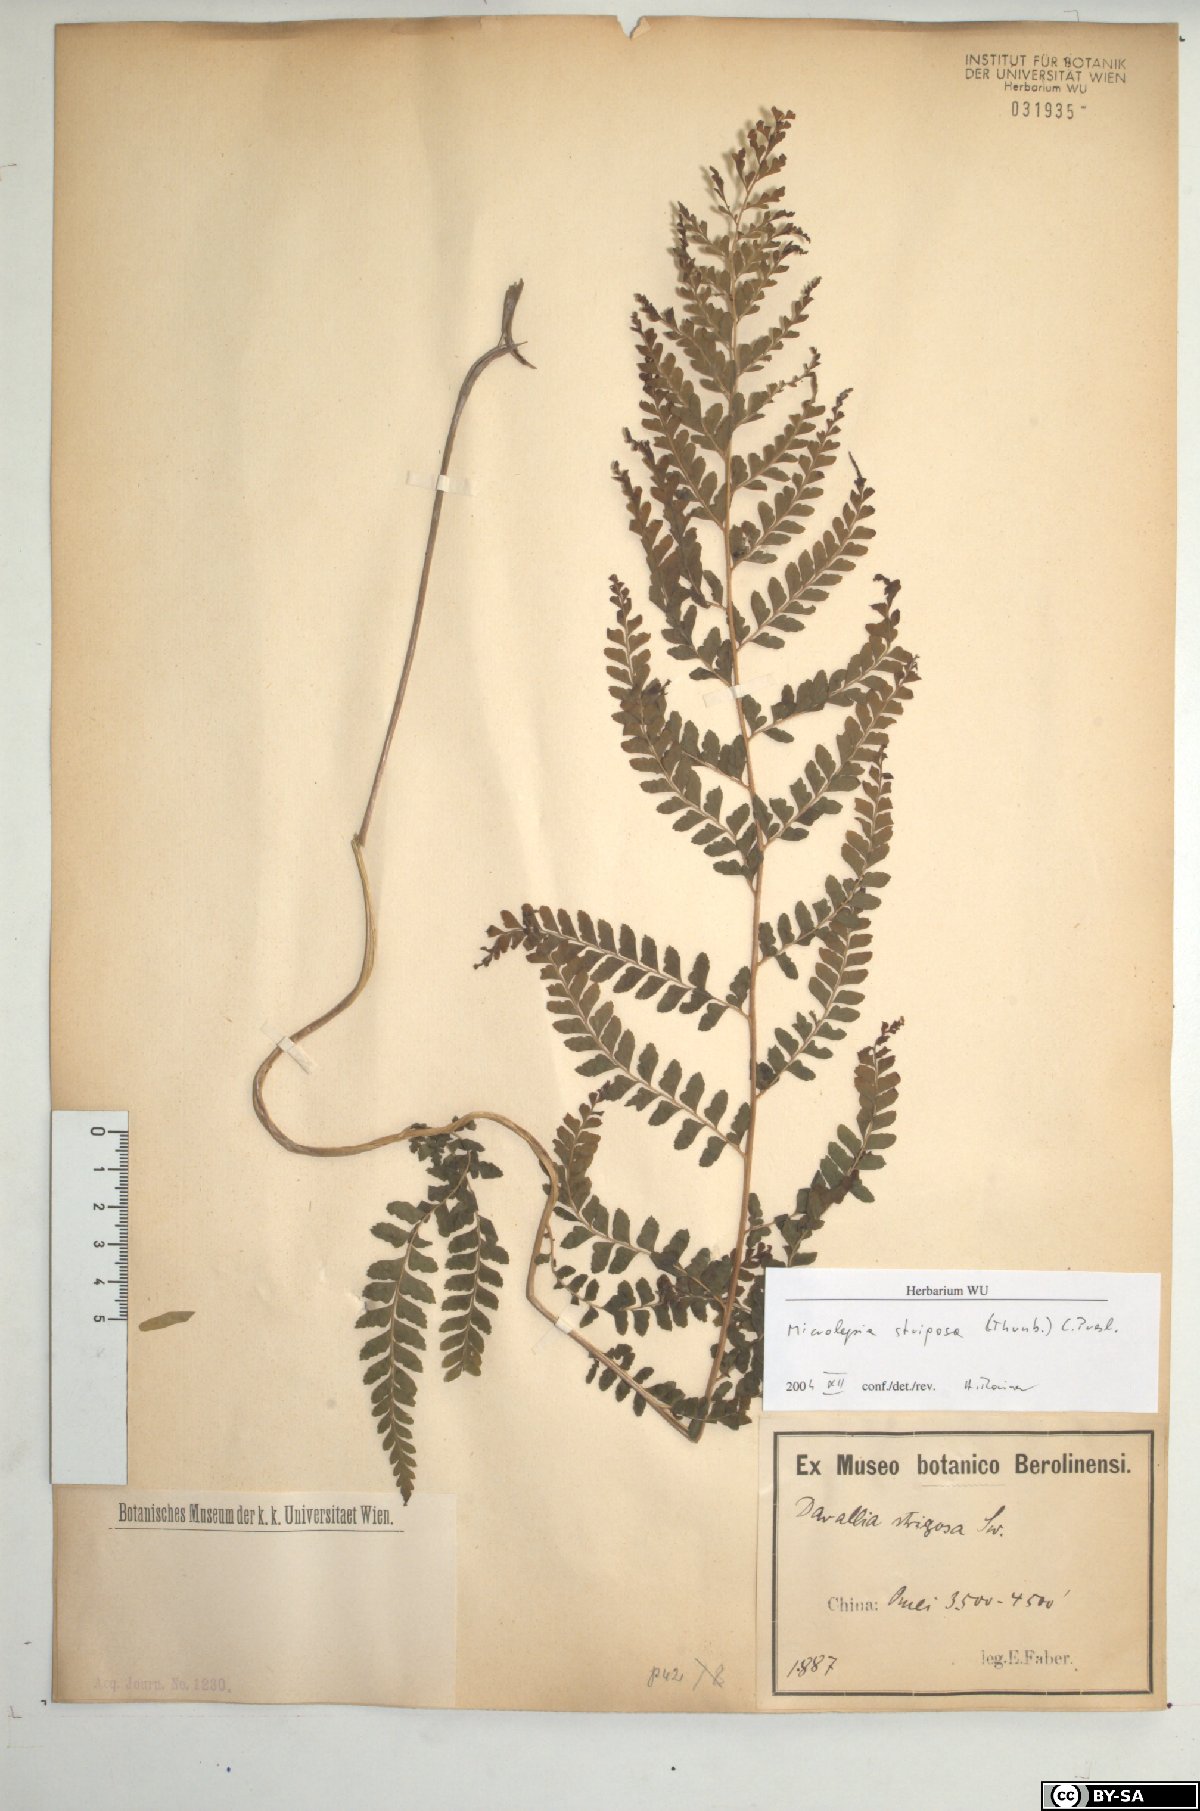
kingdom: Plantae
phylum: Tracheophyta
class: Polypodiopsida
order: Polypodiales
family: Dennstaedtiaceae
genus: Microlepia
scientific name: Microlepia strigosa
